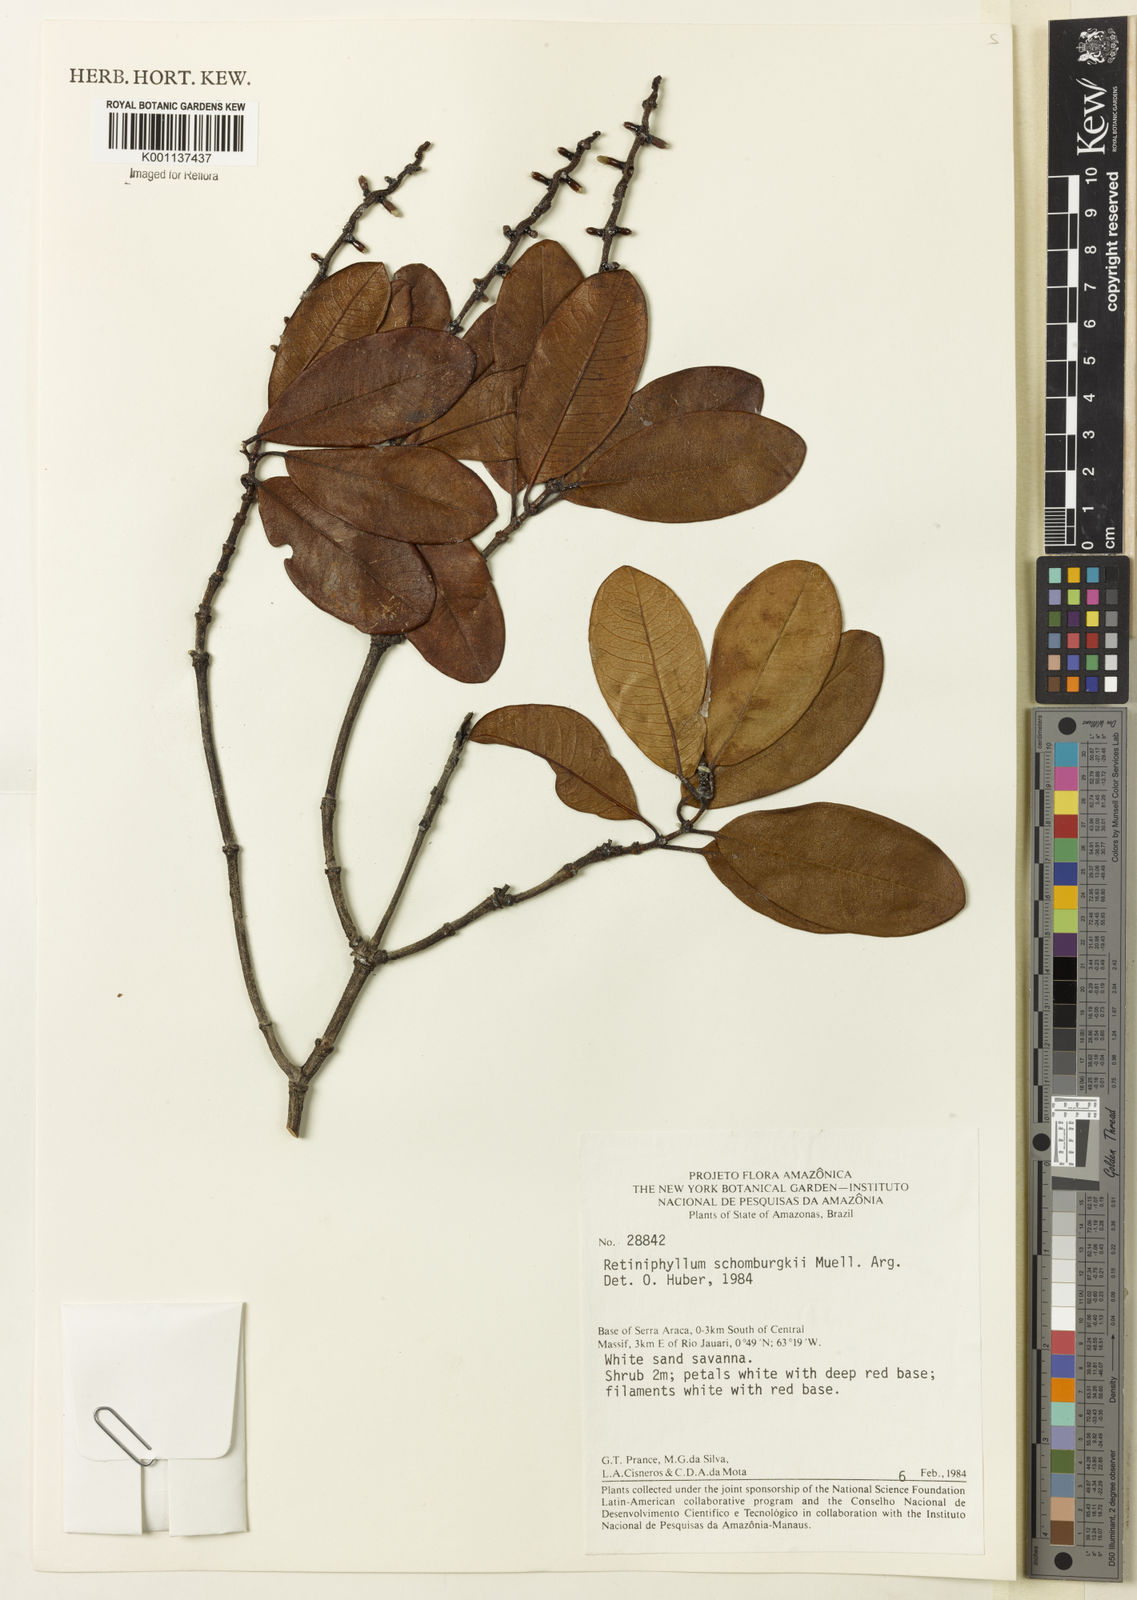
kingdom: Plantae
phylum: Tracheophyta
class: Magnoliopsida
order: Gentianales
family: Rubiaceae
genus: Retiniphyllum
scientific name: Retiniphyllum
